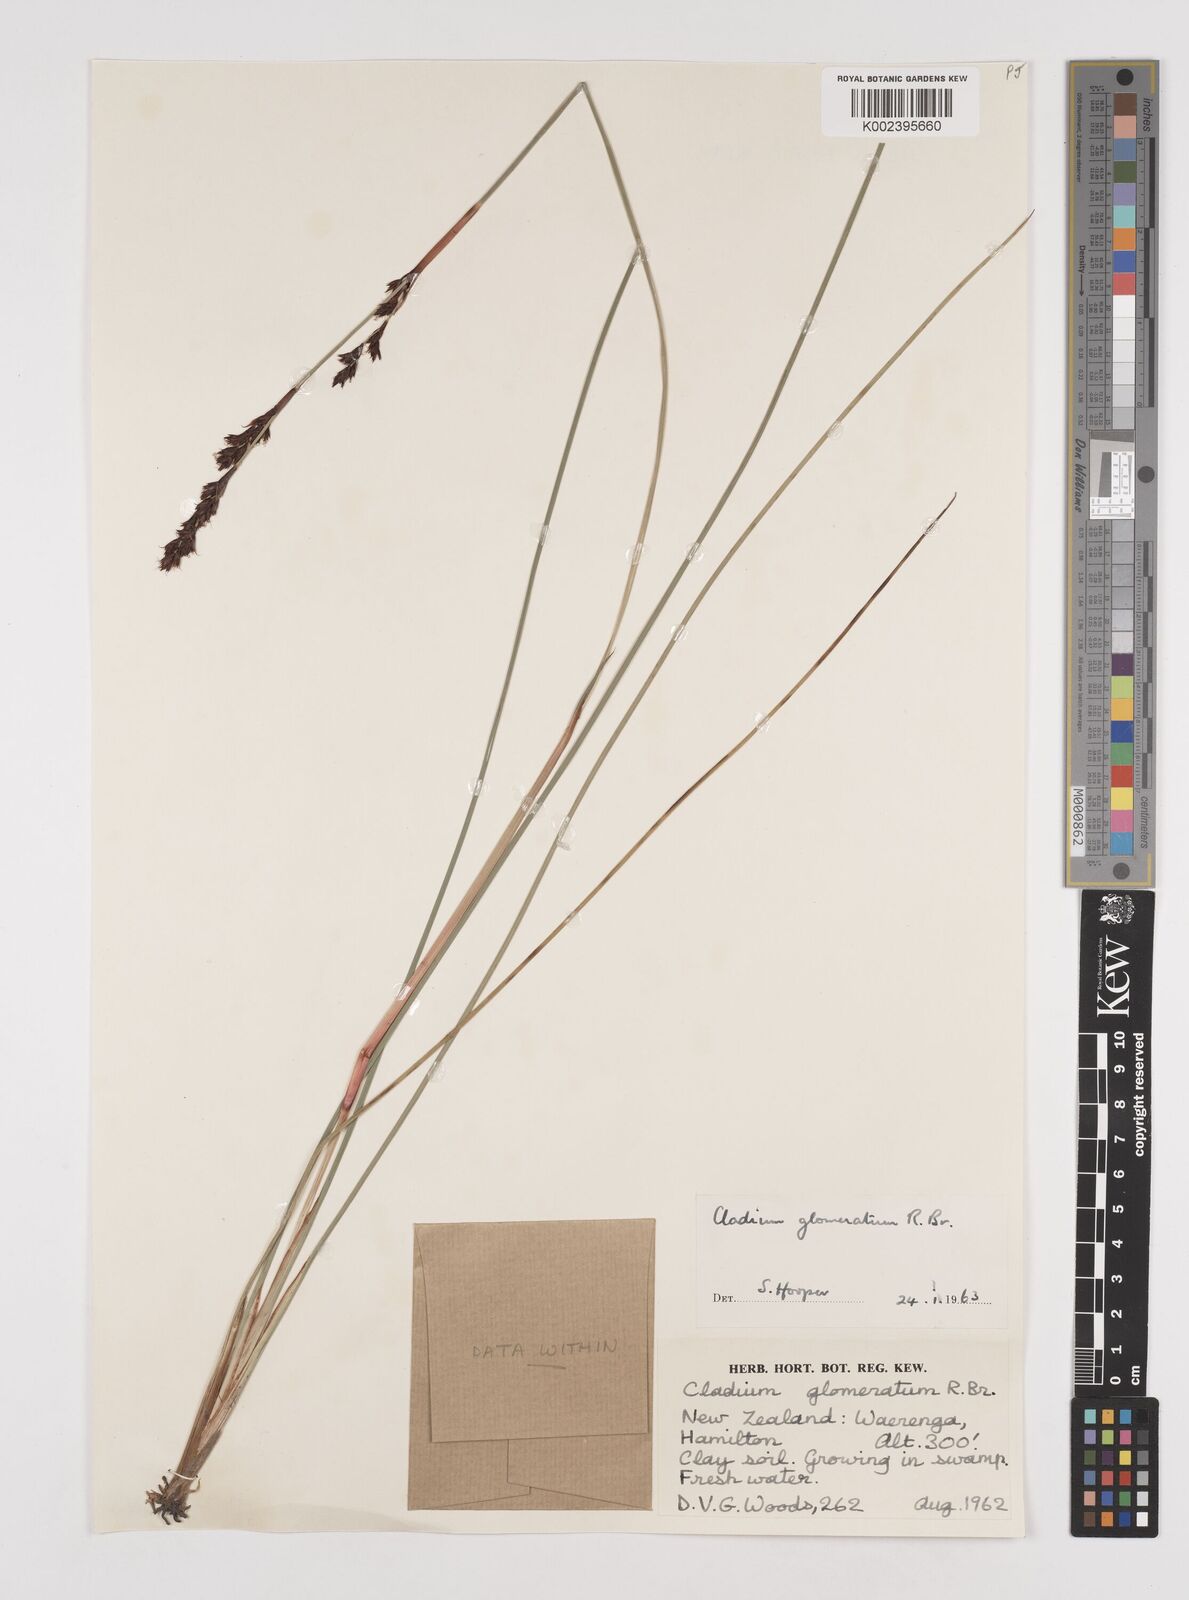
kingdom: Plantae
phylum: Tracheophyta
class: Liliopsida
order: Poales
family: Cyperaceae
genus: Machaerina
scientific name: Machaerina rubiginosa
